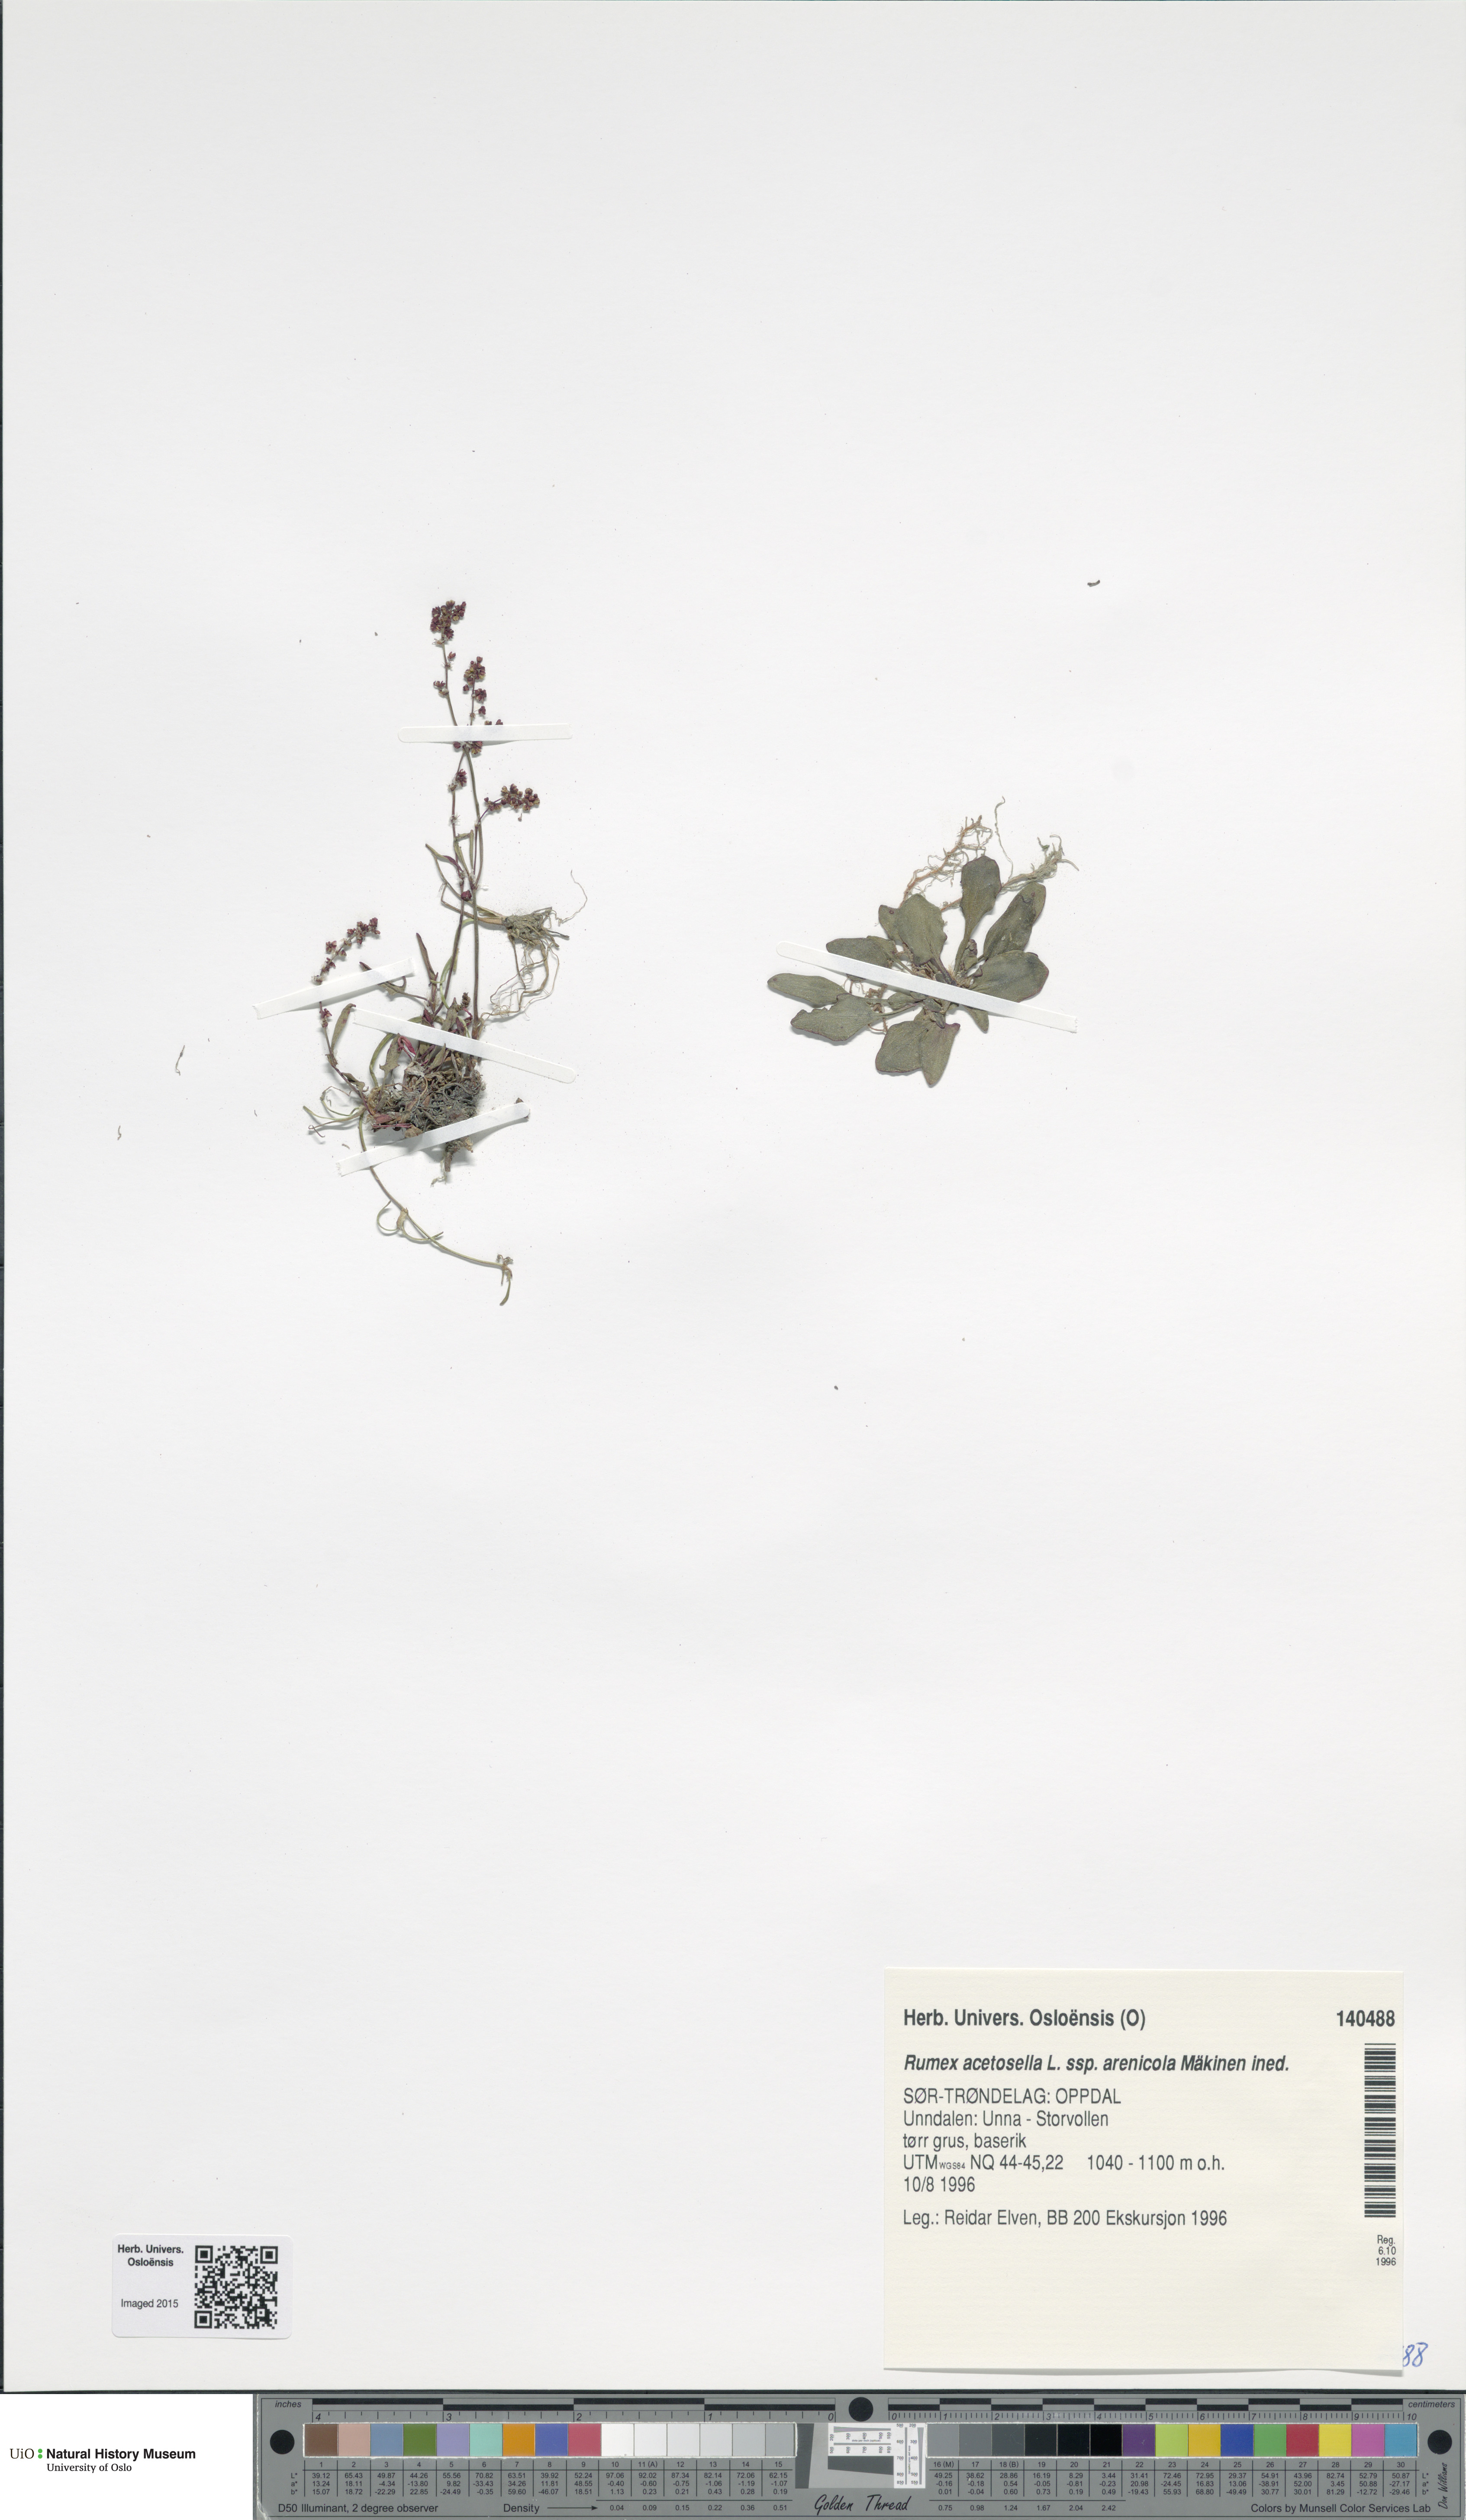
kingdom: Plantae
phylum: Tracheophyta
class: Magnoliopsida
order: Caryophyllales
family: Polygonaceae
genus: Rumex
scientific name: Rumex acetosella
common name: Common sheep sorrel
